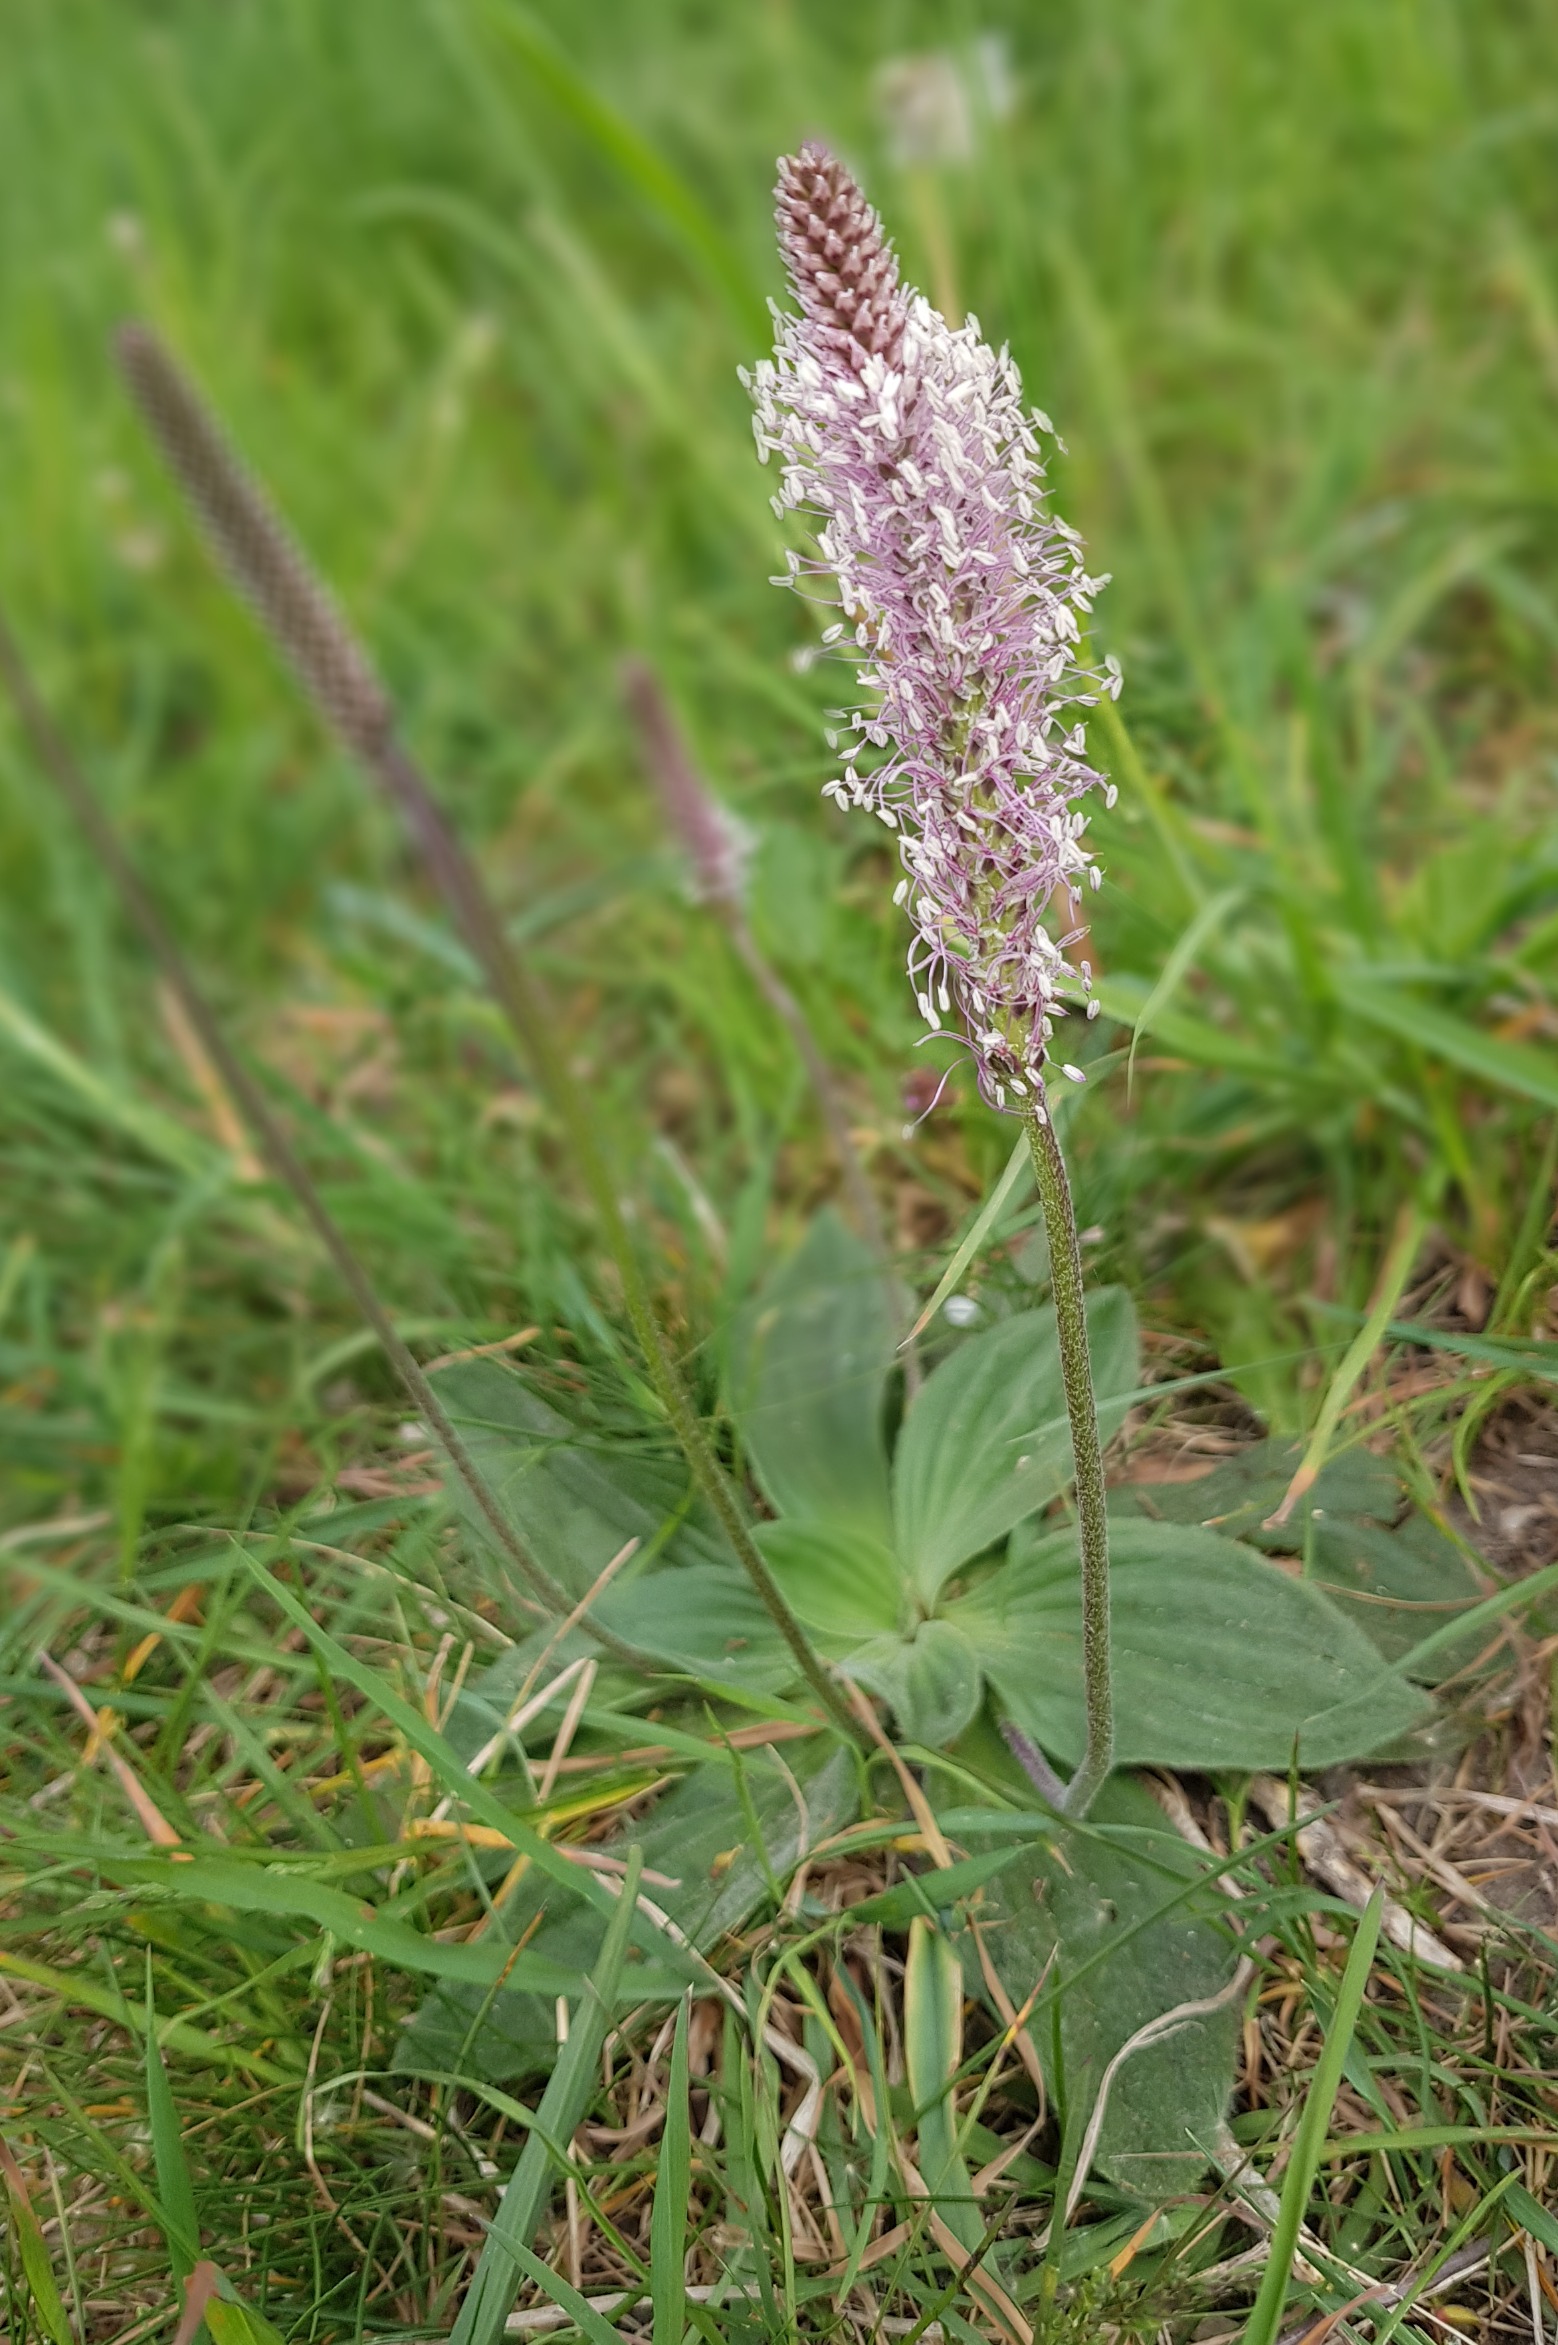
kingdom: Plantae
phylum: Tracheophyta
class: Magnoliopsida
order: Lamiales
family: Plantaginaceae
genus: Plantago
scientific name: Plantago media
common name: Dunet vejbred
